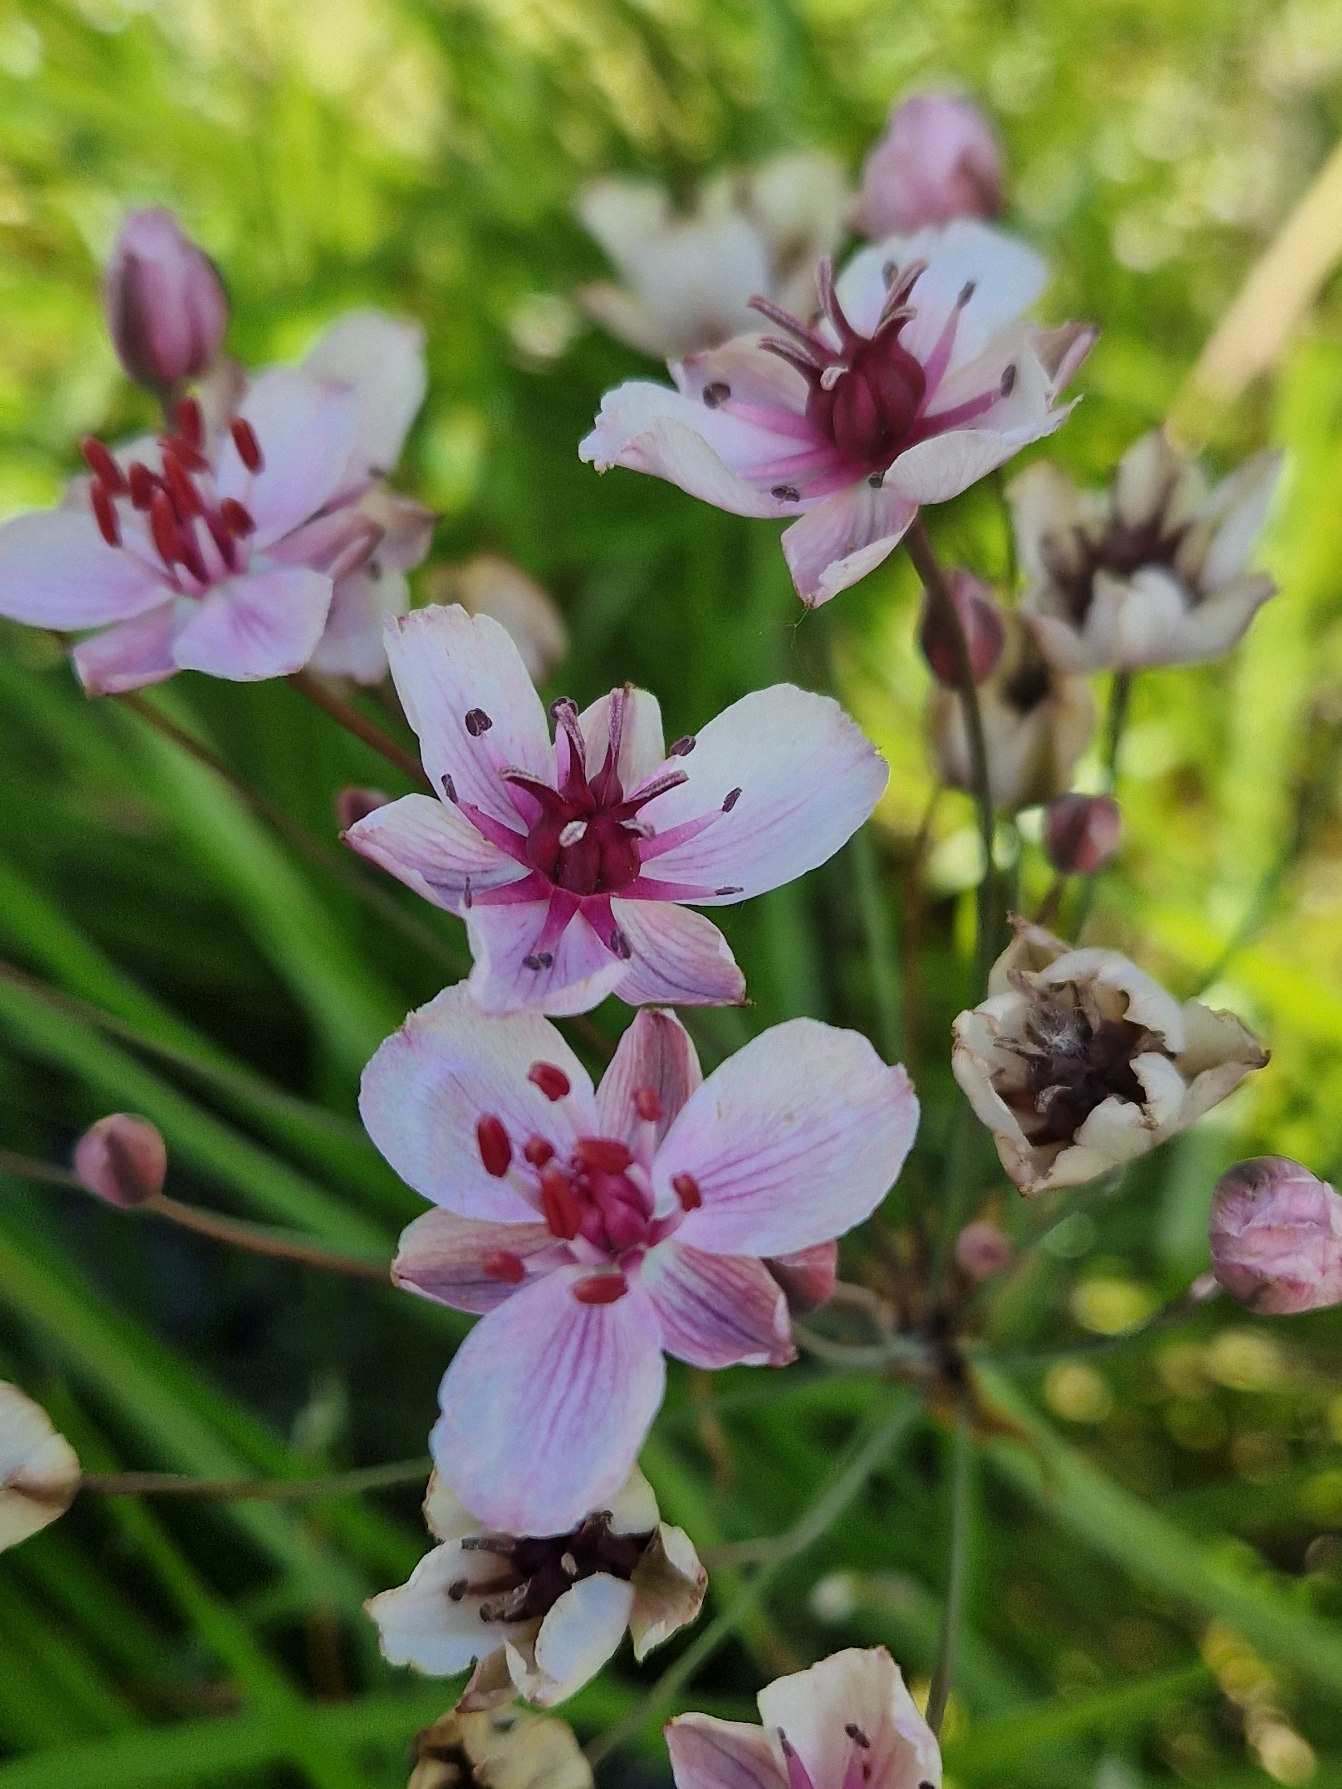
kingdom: Plantae
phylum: Tracheophyta
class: Liliopsida
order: Alismatales
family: Butomaceae
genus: Butomus
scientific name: Butomus umbellatus
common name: Brudelys
